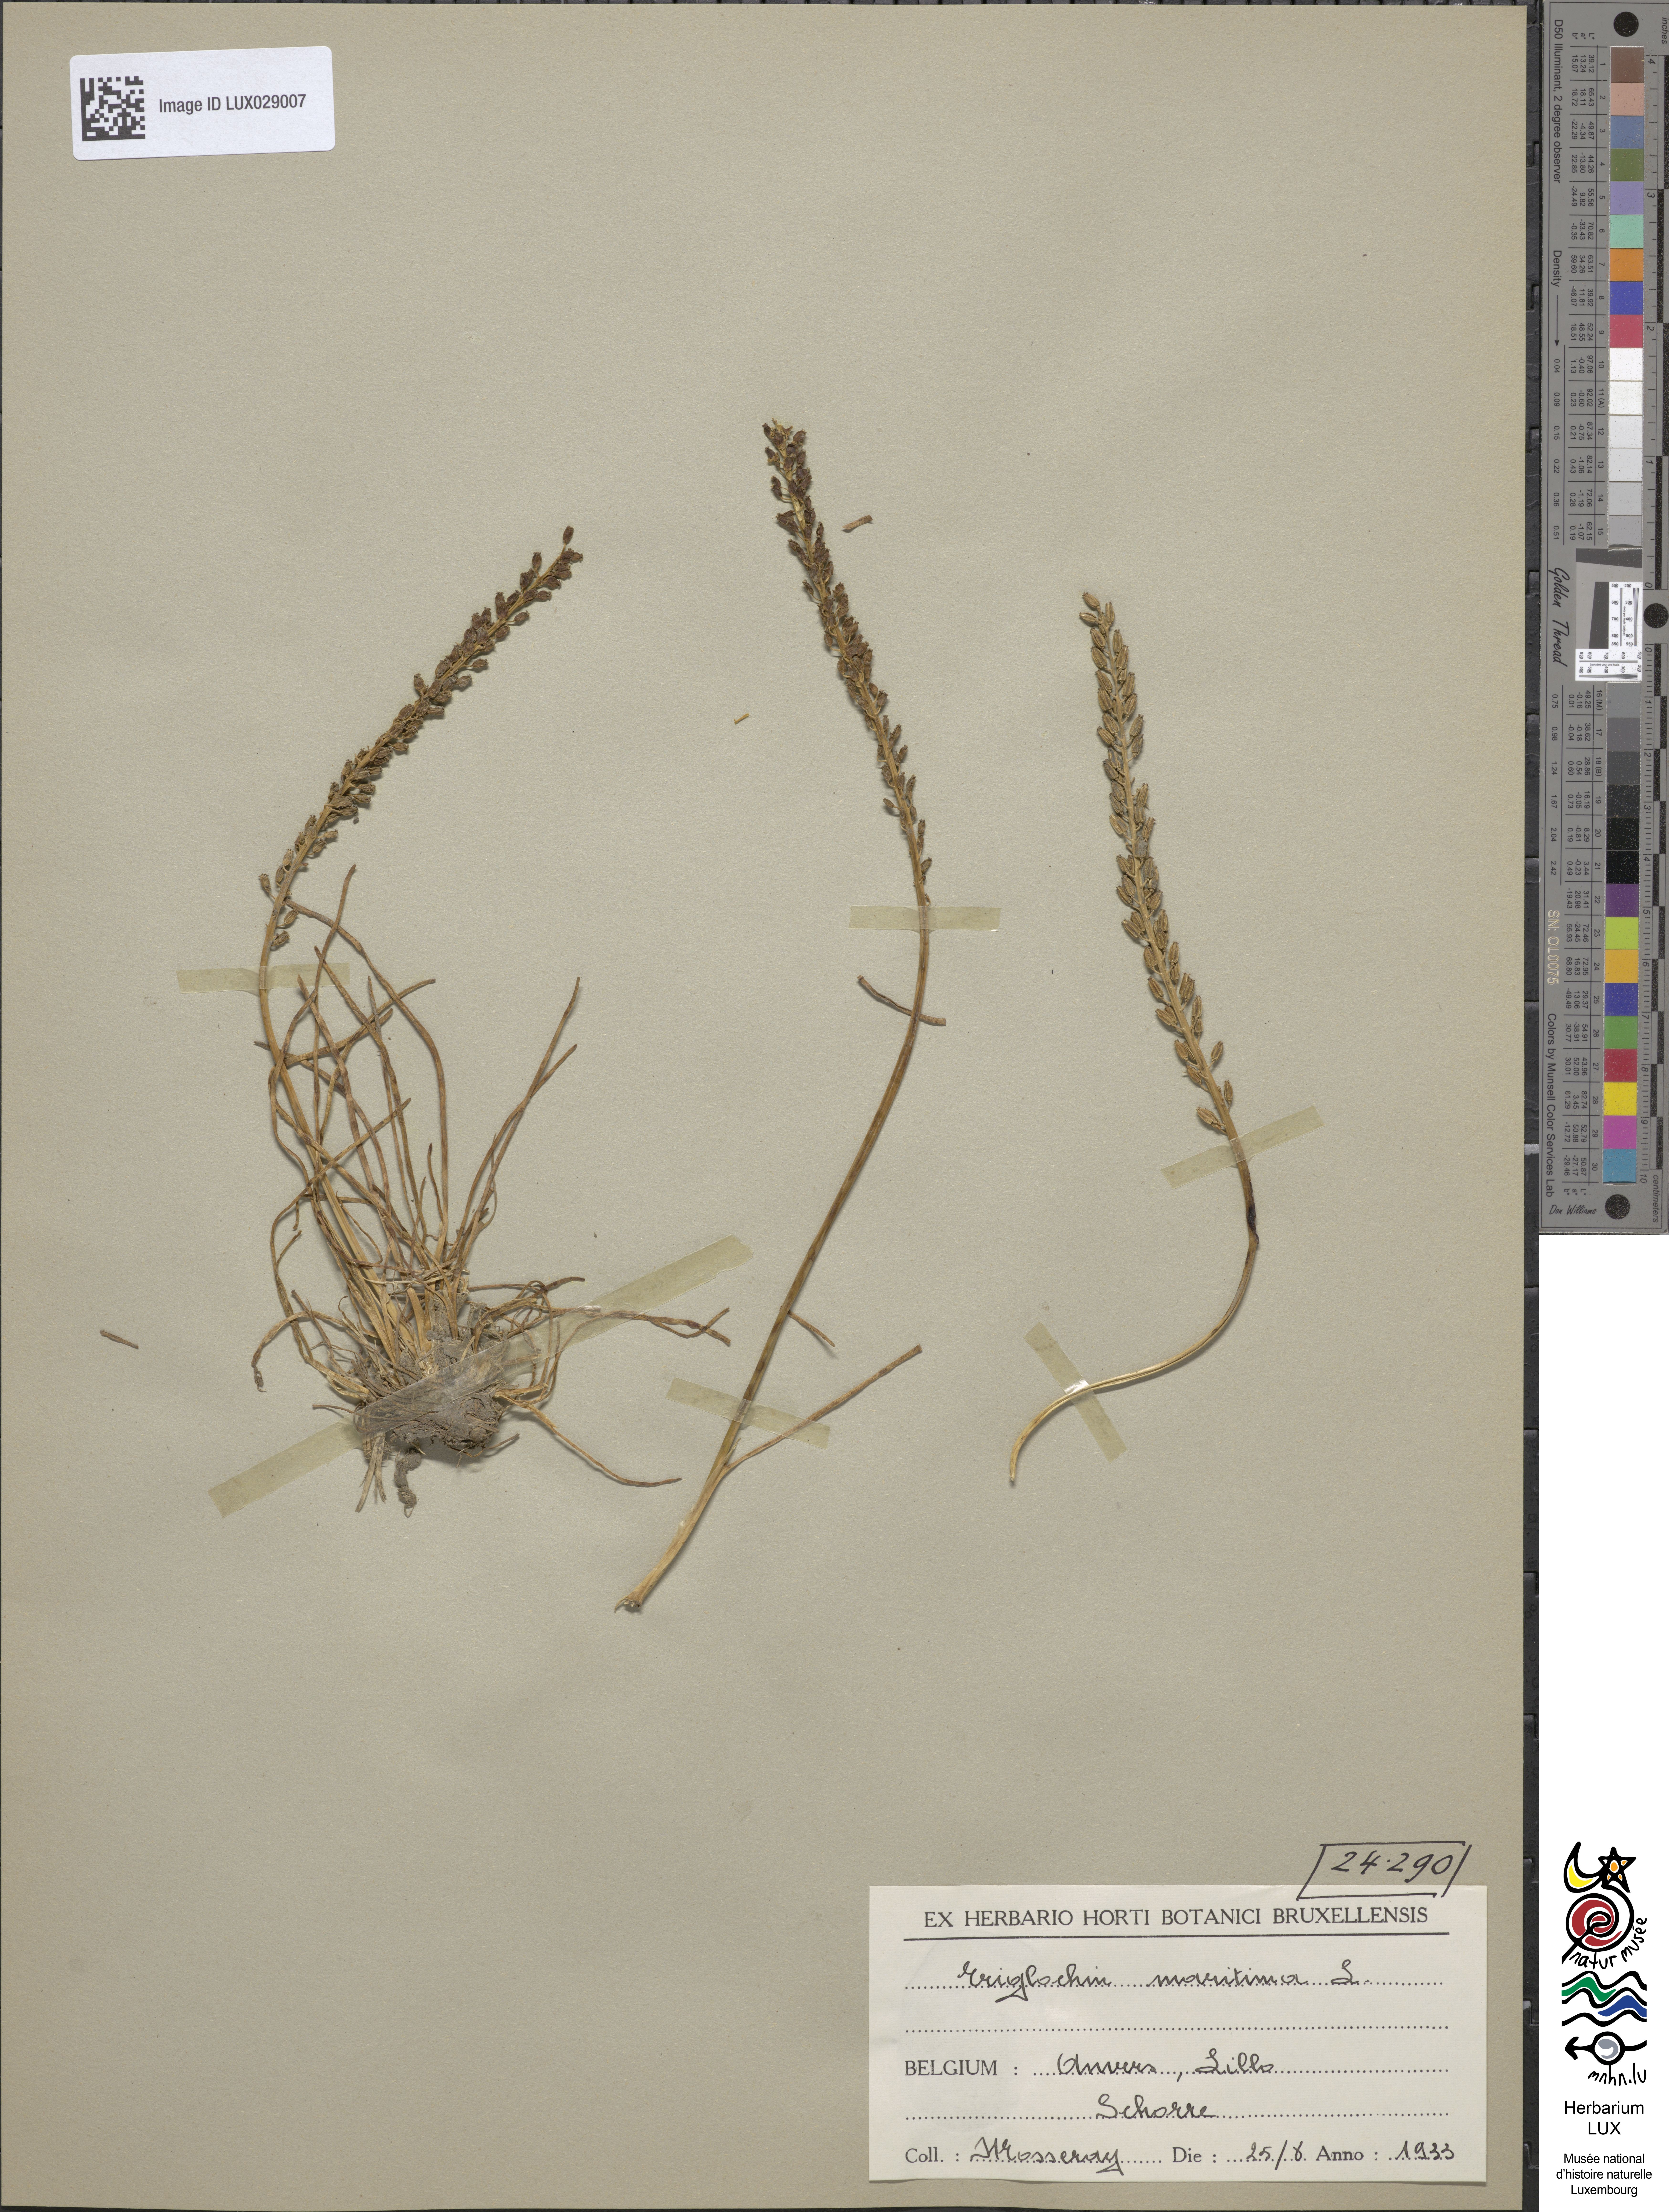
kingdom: Plantae
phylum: Tracheophyta
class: Liliopsida
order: Alismatales
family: Juncaginaceae
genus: Triglochin
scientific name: Triglochin maritima
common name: Sea arrowgrass
